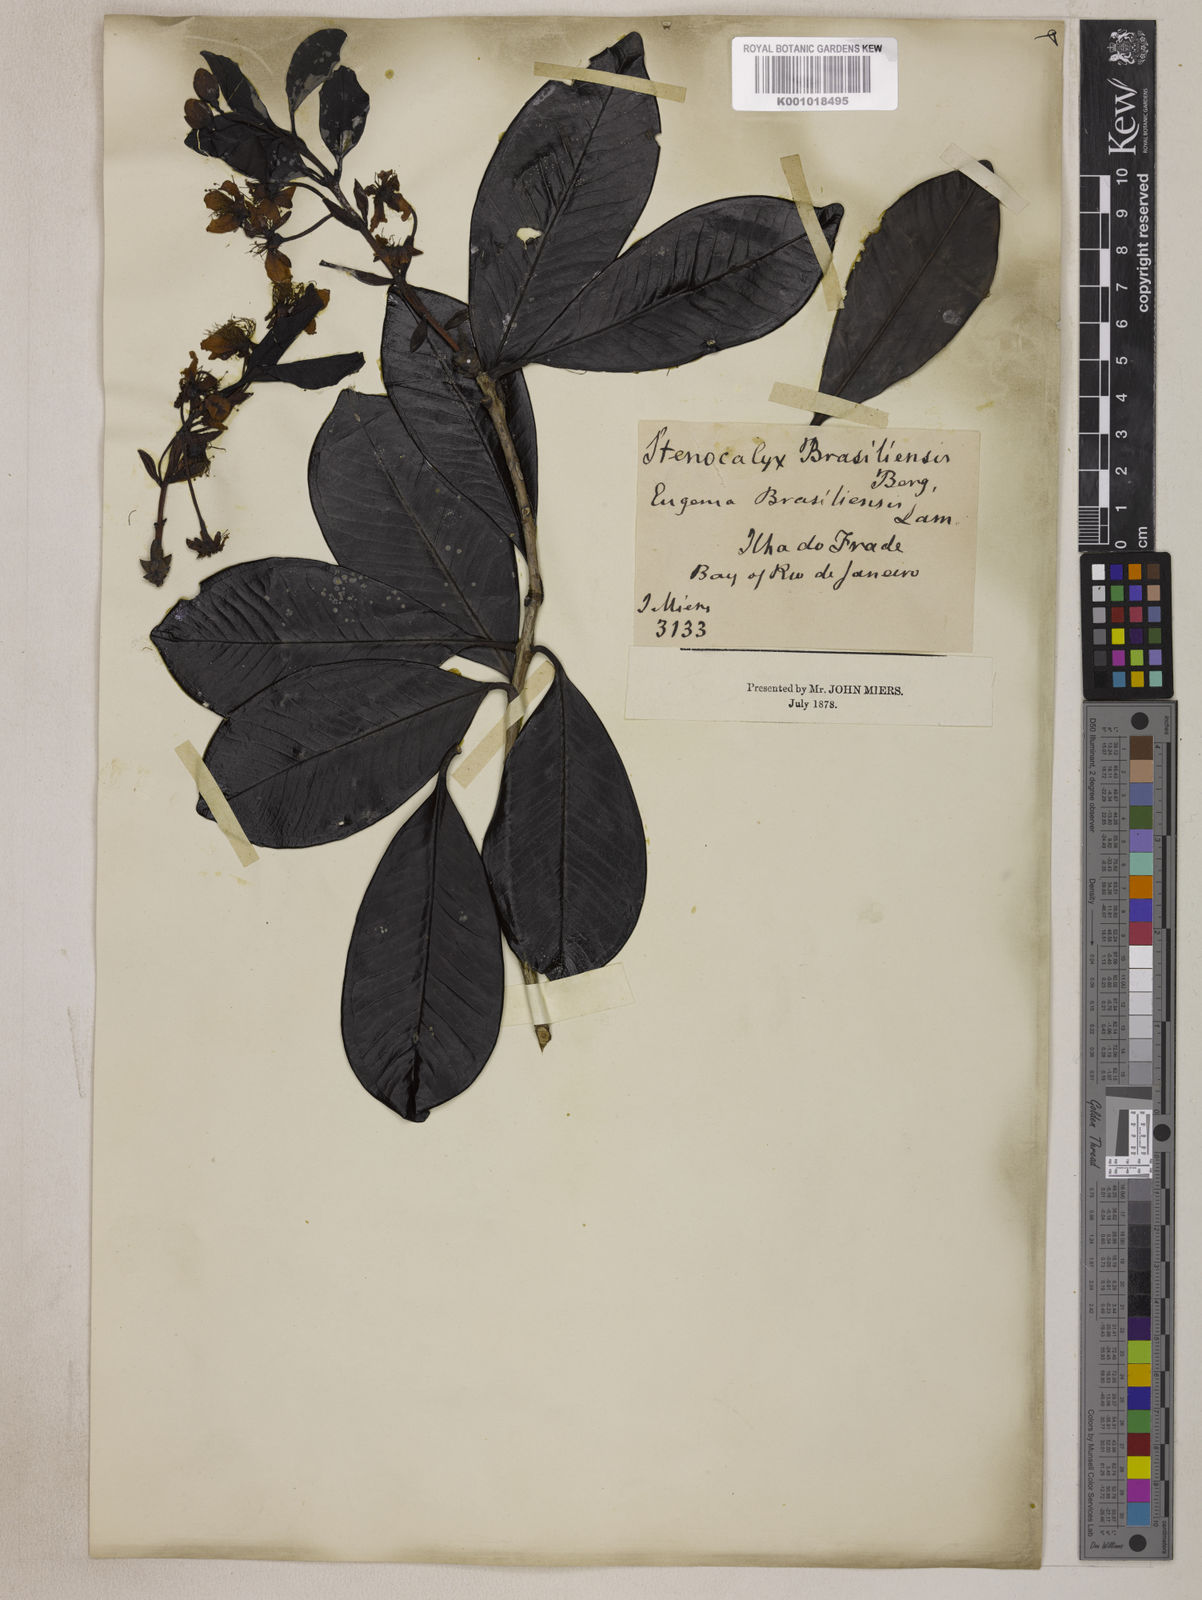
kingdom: Plantae
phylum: Tracheophyta
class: Magnoliopsida
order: Myrtales
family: Myrtaceae
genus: Eugenia
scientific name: Eugenia brasiliensis
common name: Grumichama
